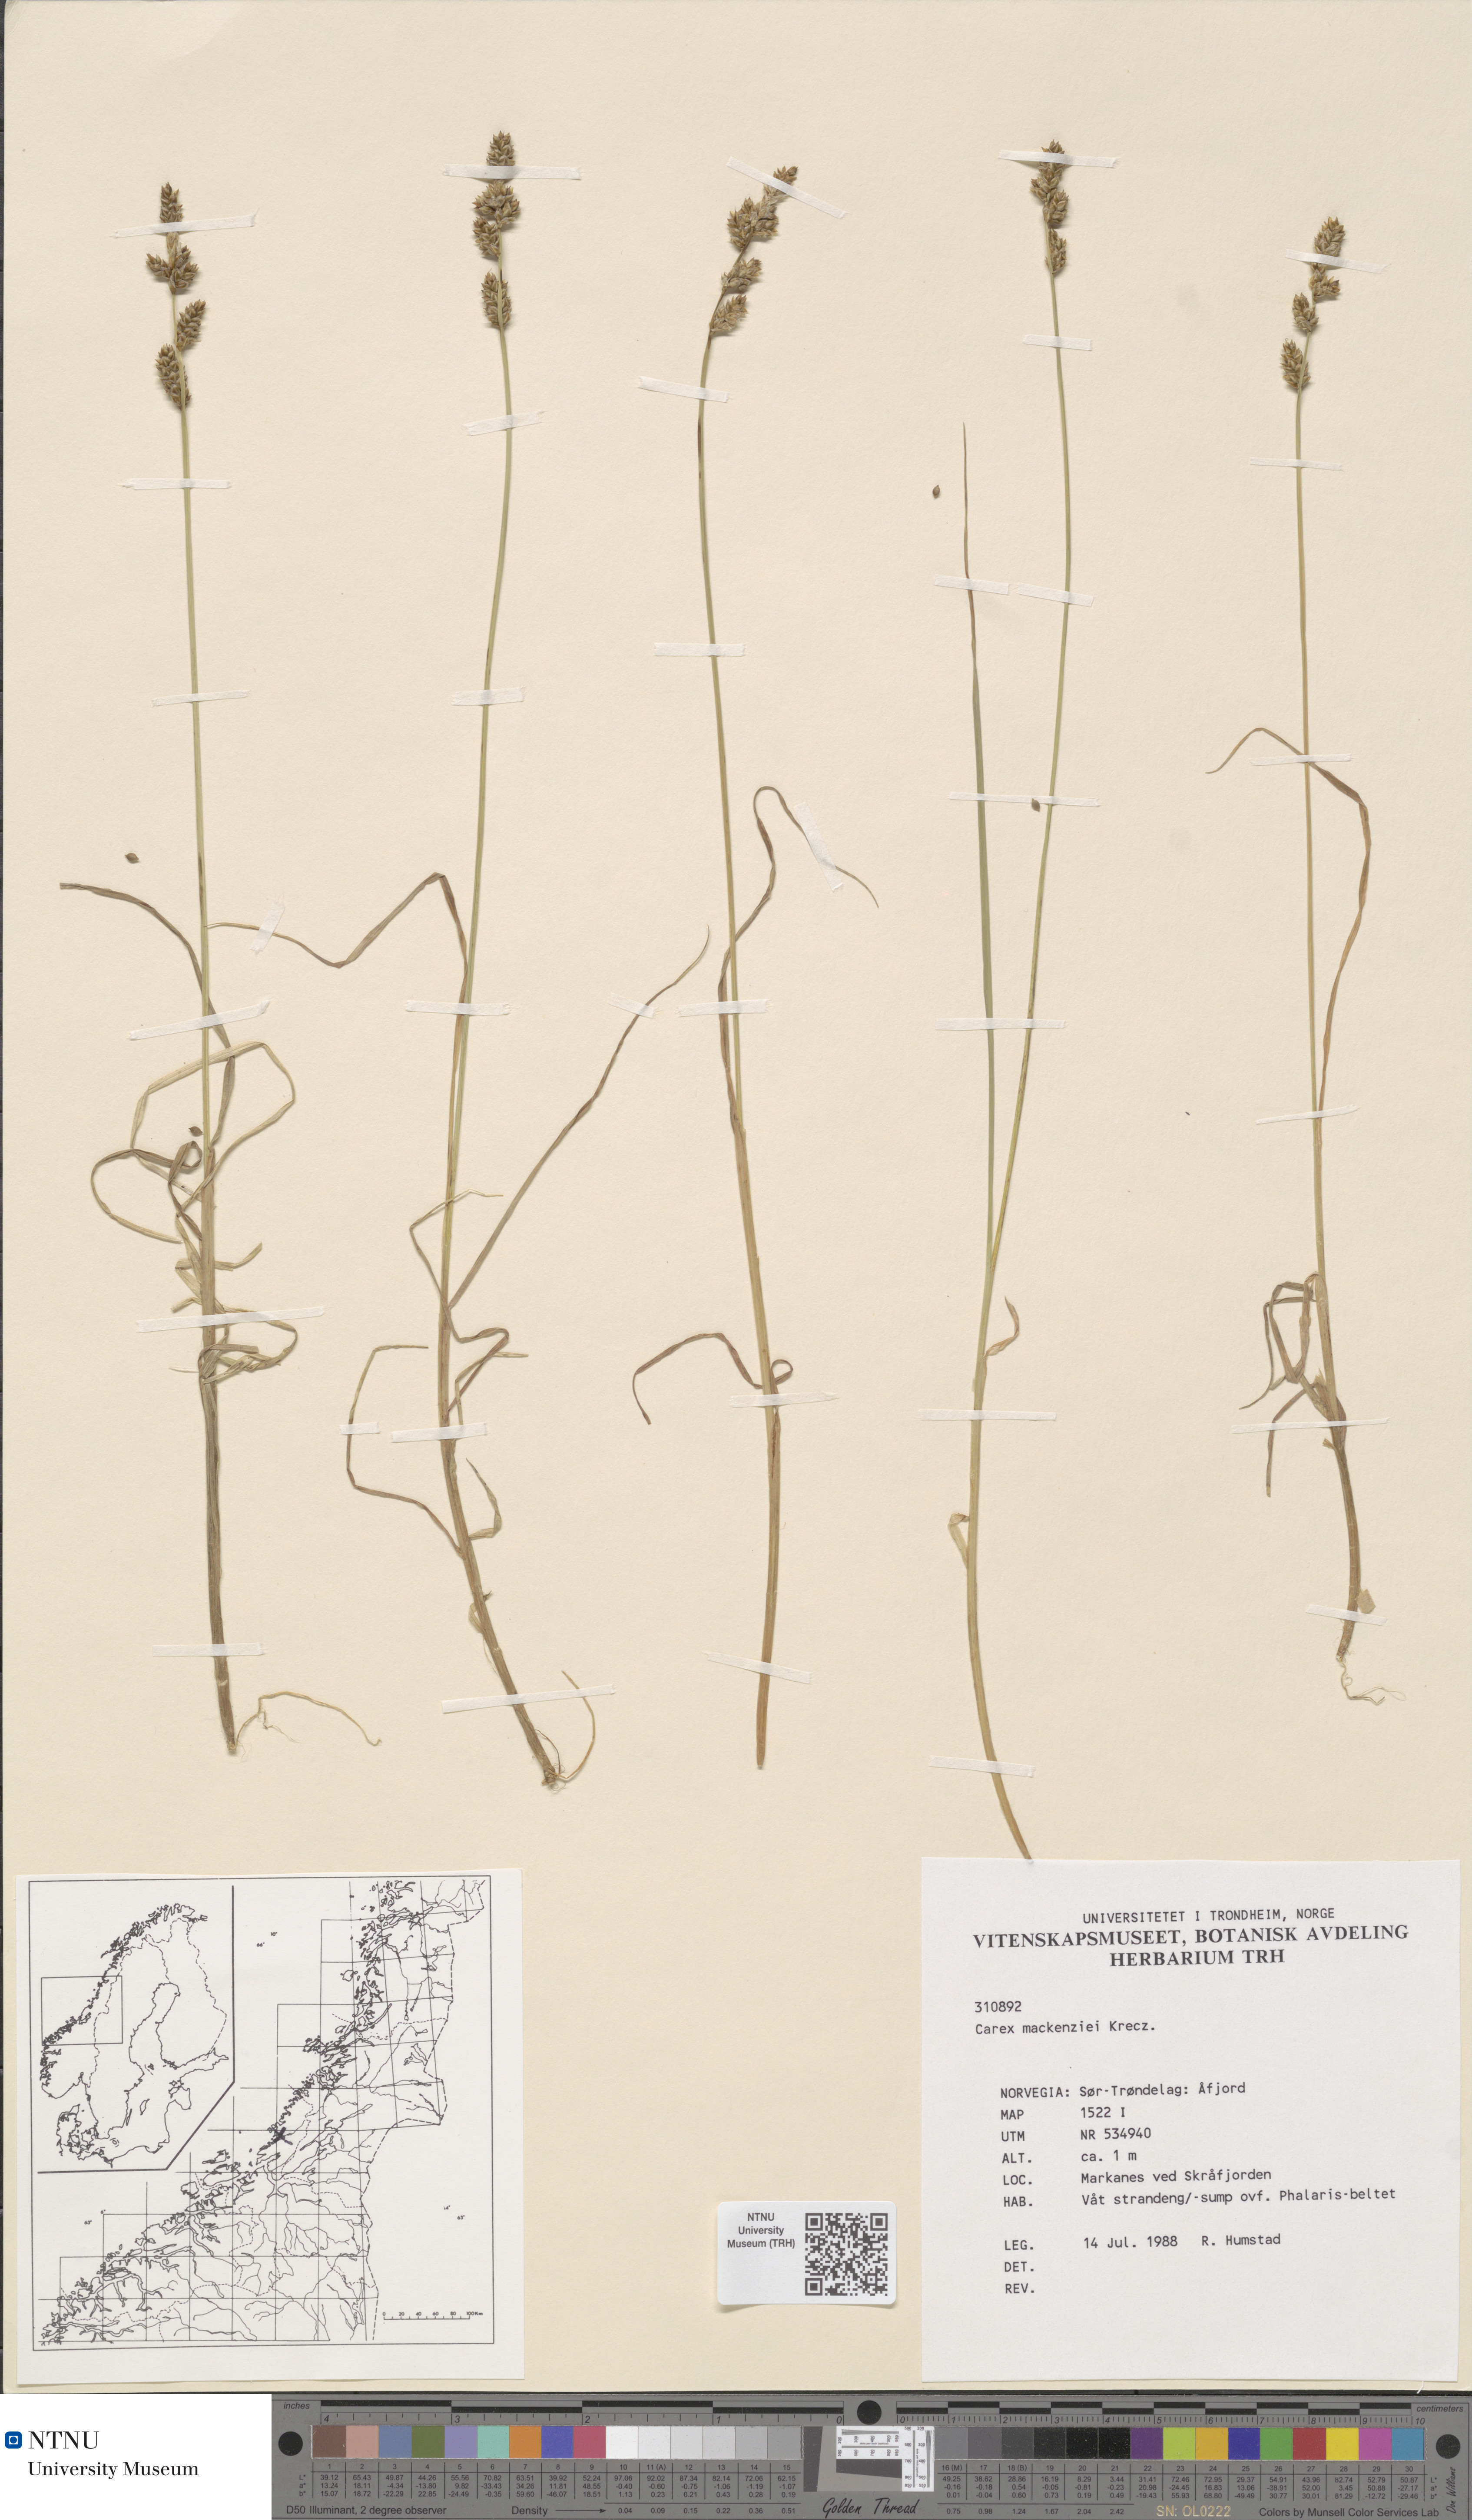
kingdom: Plantae
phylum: Tracheophyta
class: Liliopsida
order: Poales
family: Cyperaceae
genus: Carex
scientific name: Carex mackenziei
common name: Mackenzie's sedge
